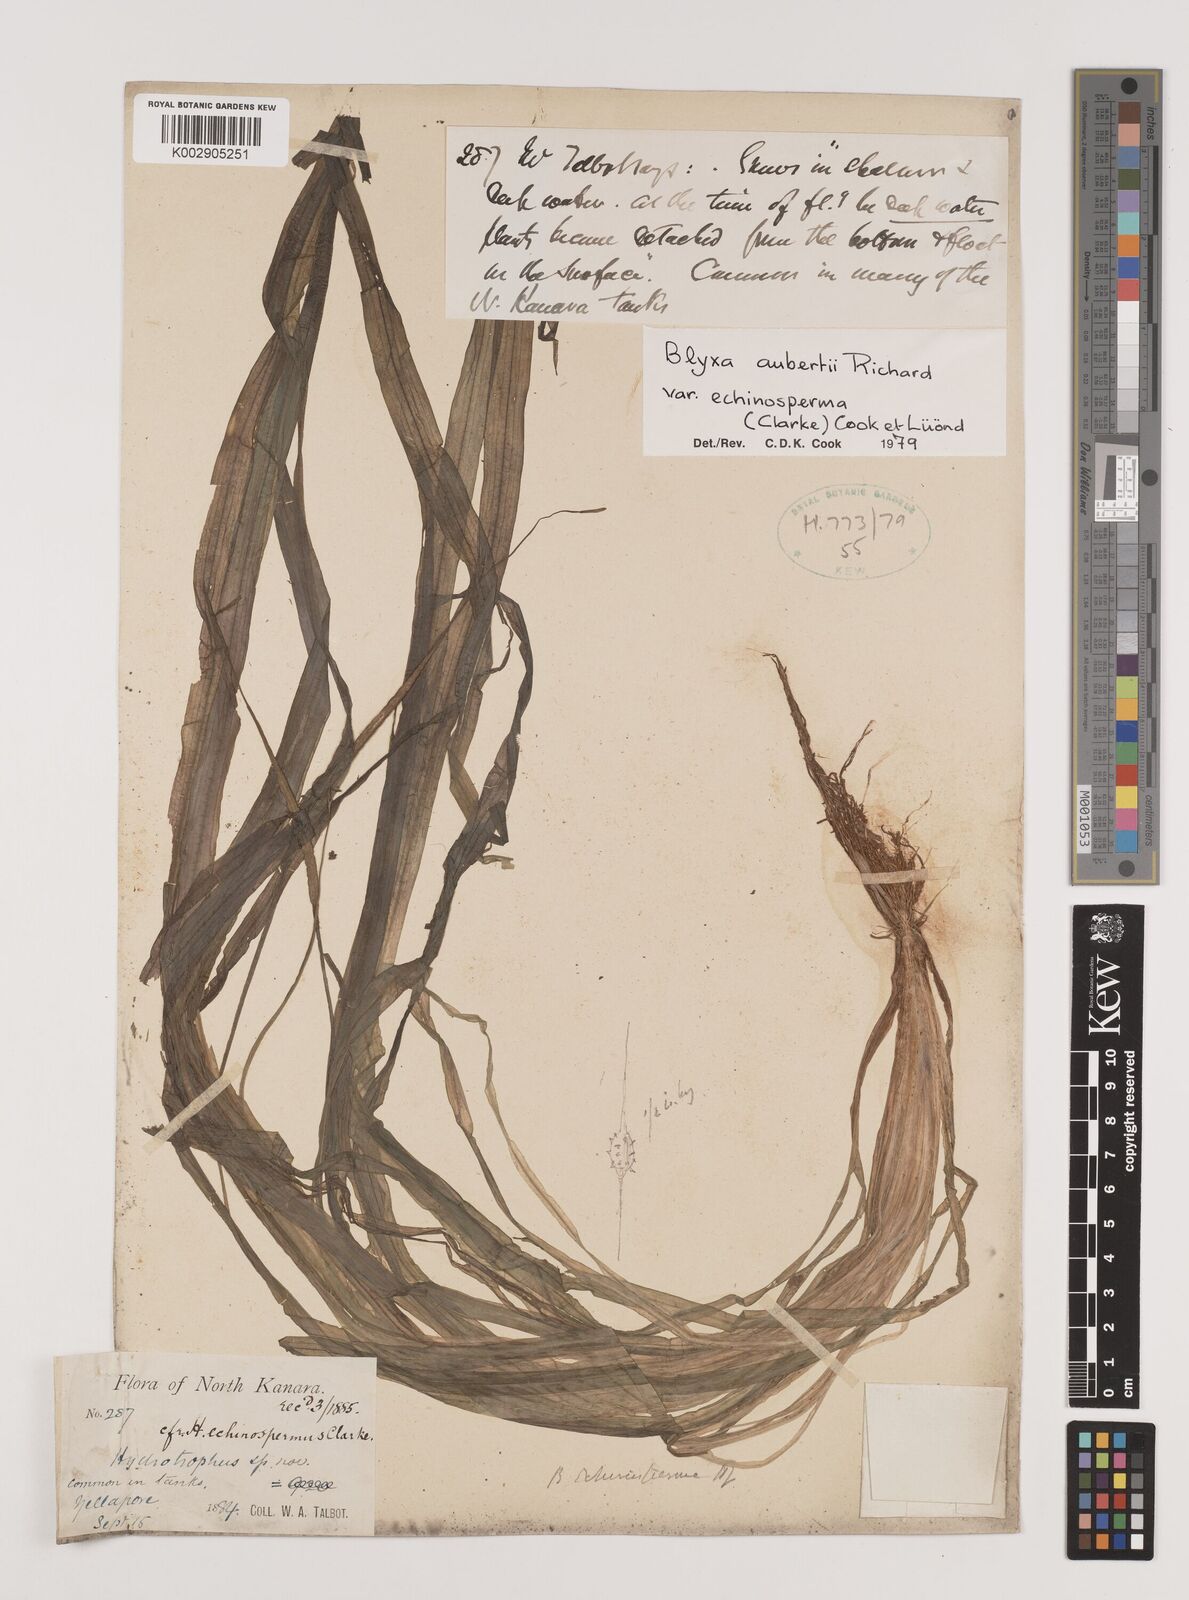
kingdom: Plantae
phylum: Tracheophyta
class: Liliopsida
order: Alismatales
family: Hydrocharitaceae
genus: Blyxa
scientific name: Blyxa echinosperma
